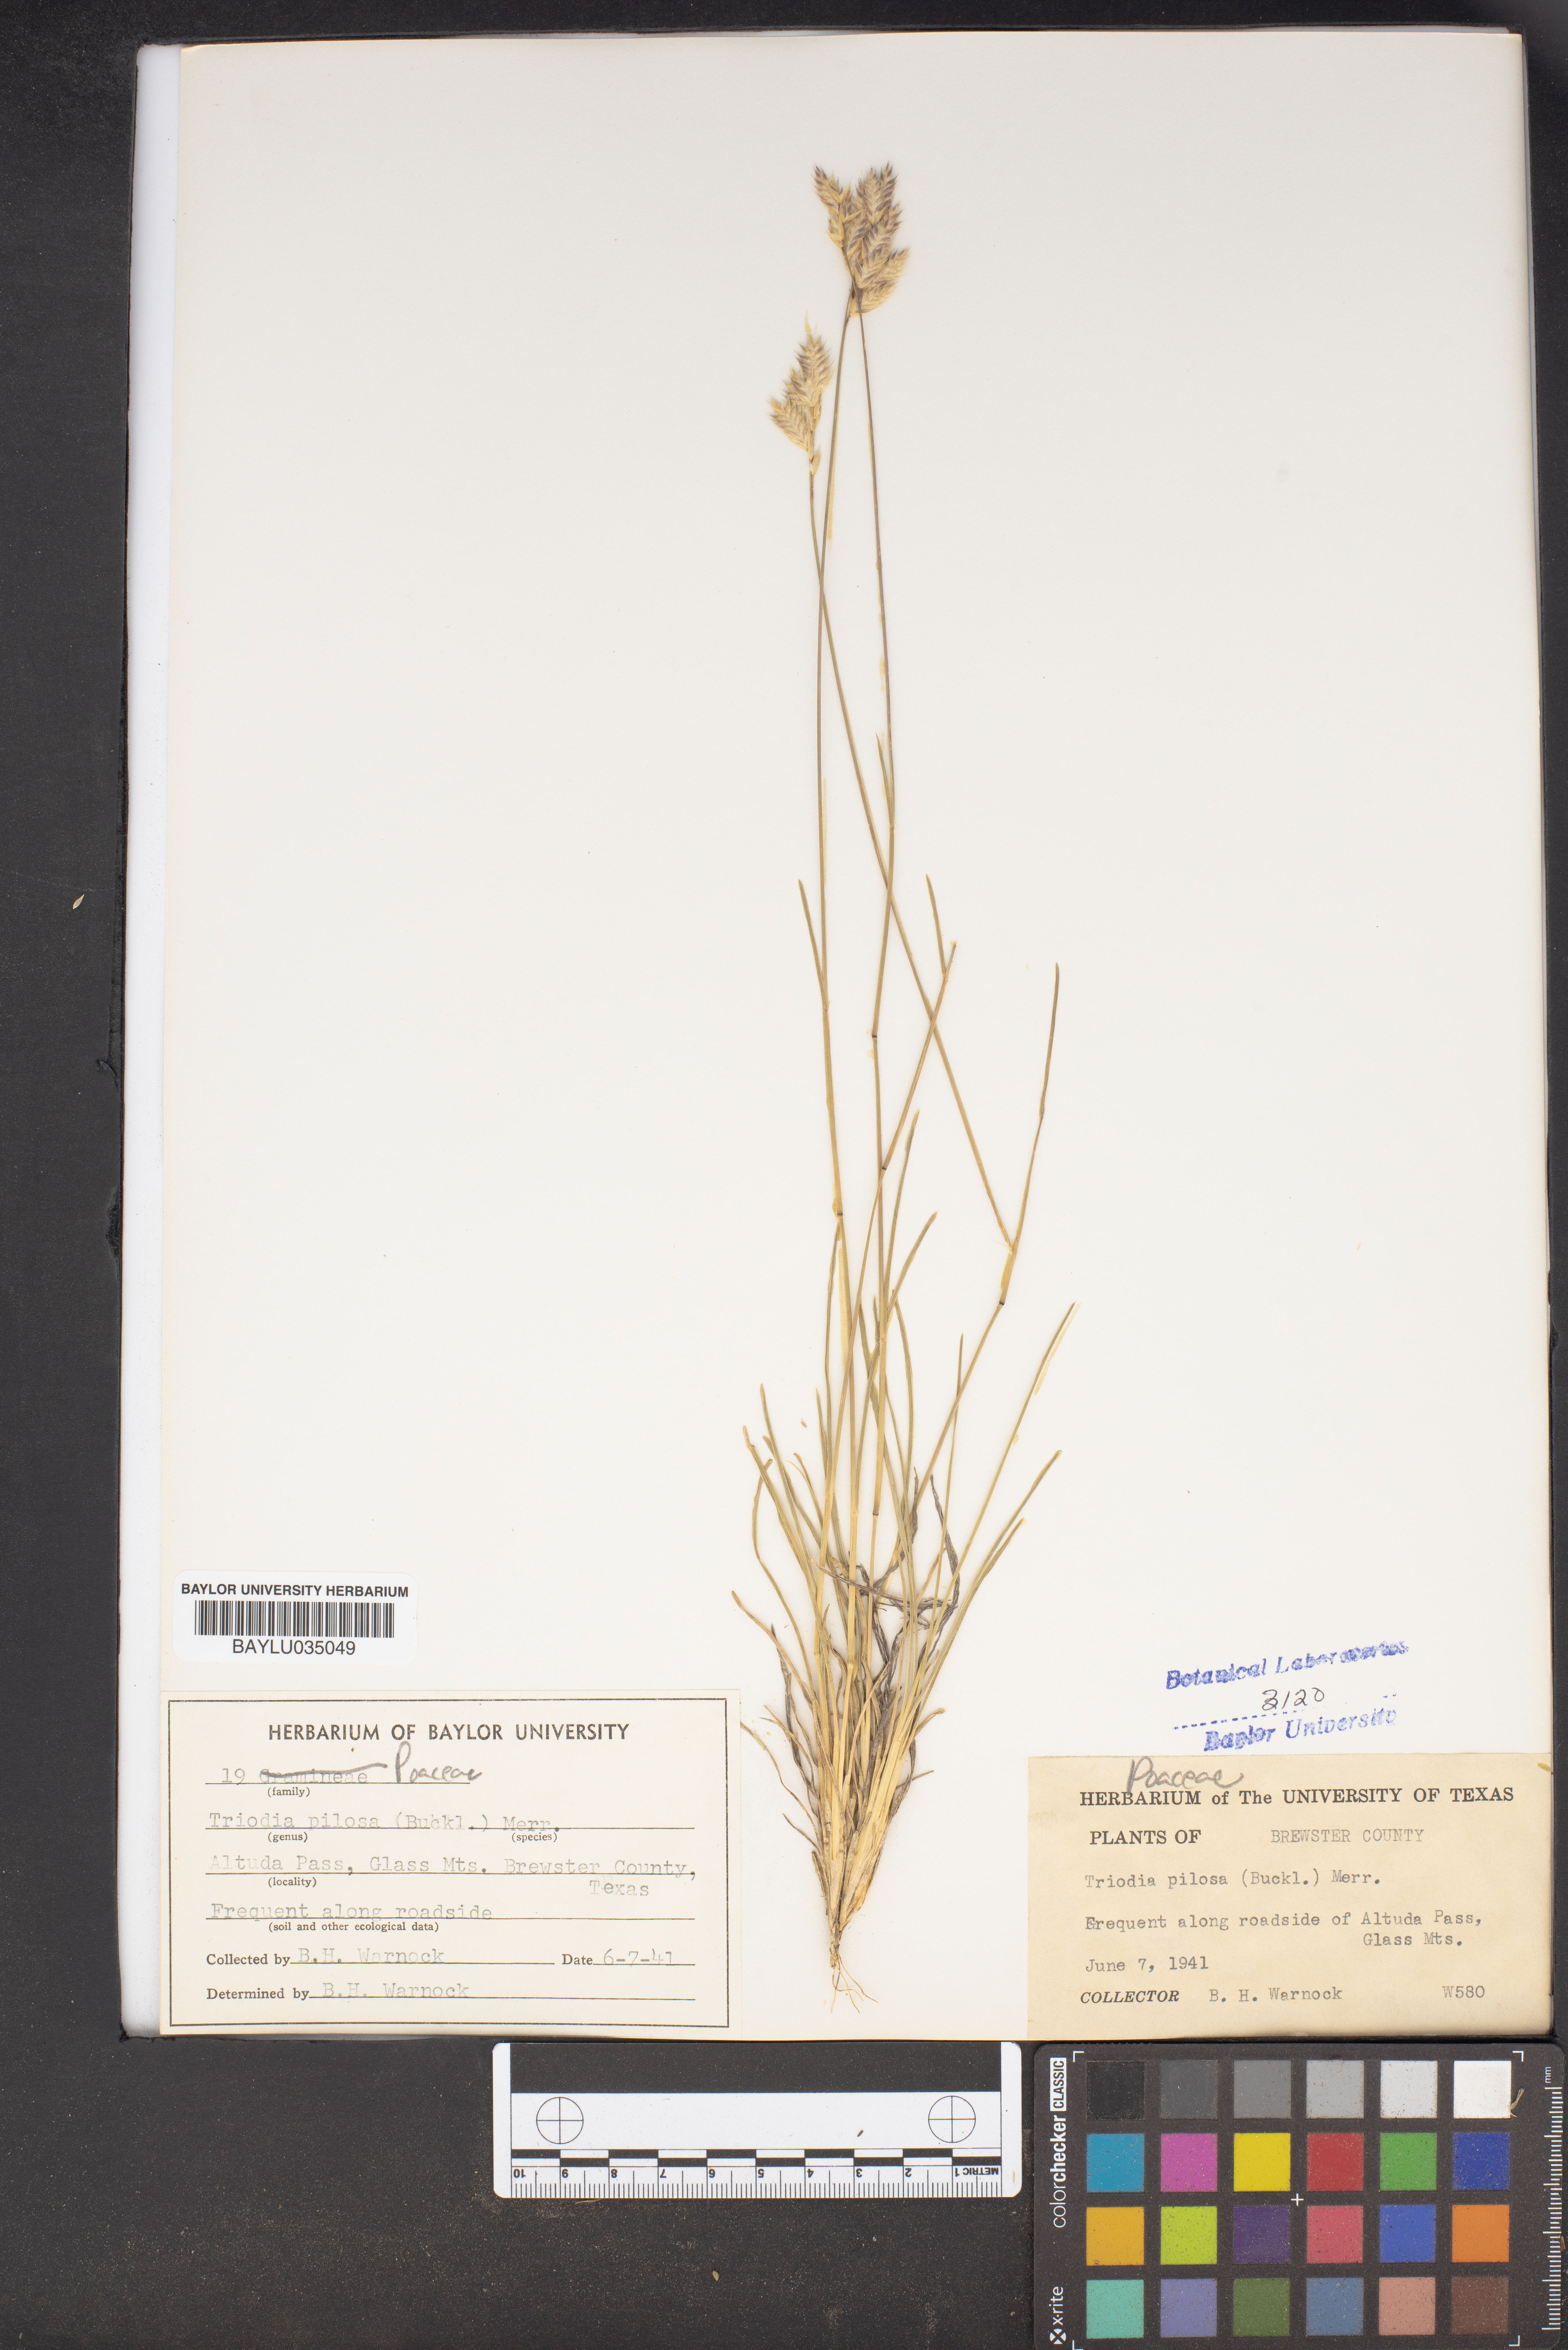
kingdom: Plantae
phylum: Tracheophyta
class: Liliopsida
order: Poales
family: Poaceae
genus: Triodia
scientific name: Triodia pilosa
